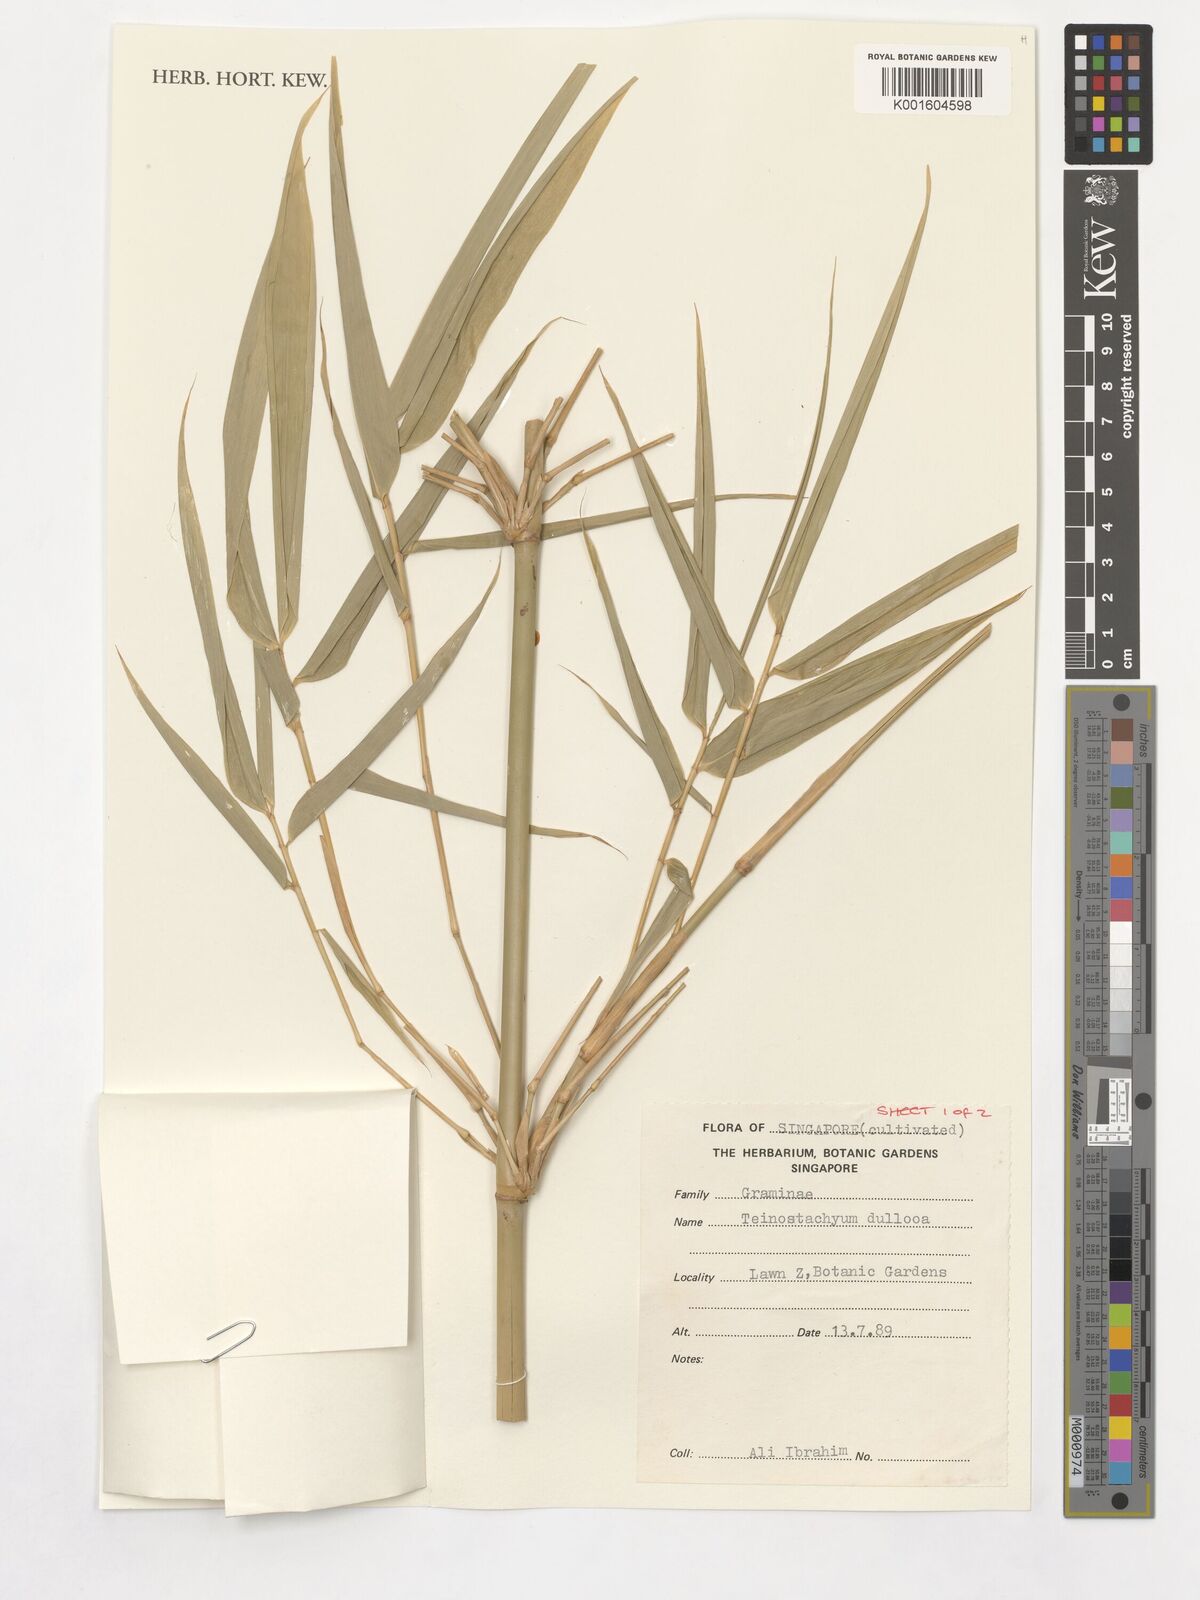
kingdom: Plantae
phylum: Tracheophyta
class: Liliopsida
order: Poales
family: Poaceae
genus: Schizostachyum
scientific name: Schizostachyum dullooa
